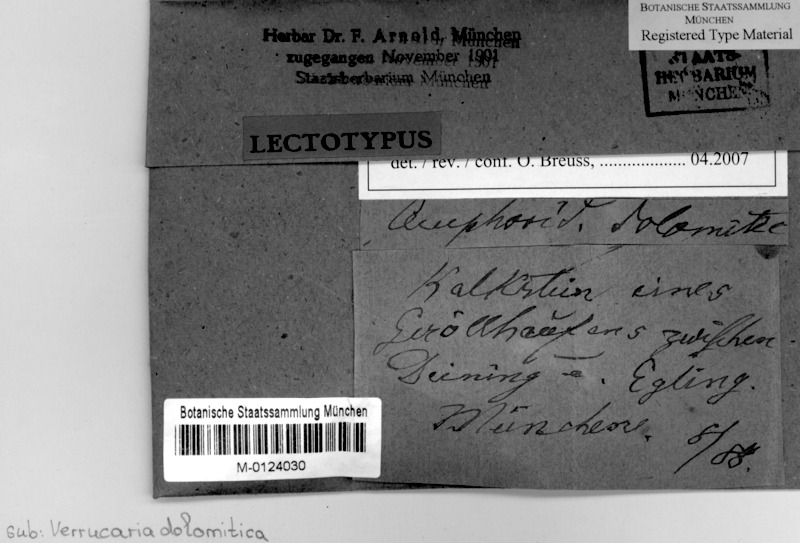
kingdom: Fungi
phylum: Ascomycota
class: Eurotiomycetes
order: Verrucariales
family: Verrucariaceae
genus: Verrucaria
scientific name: Verrucaria epilithea
